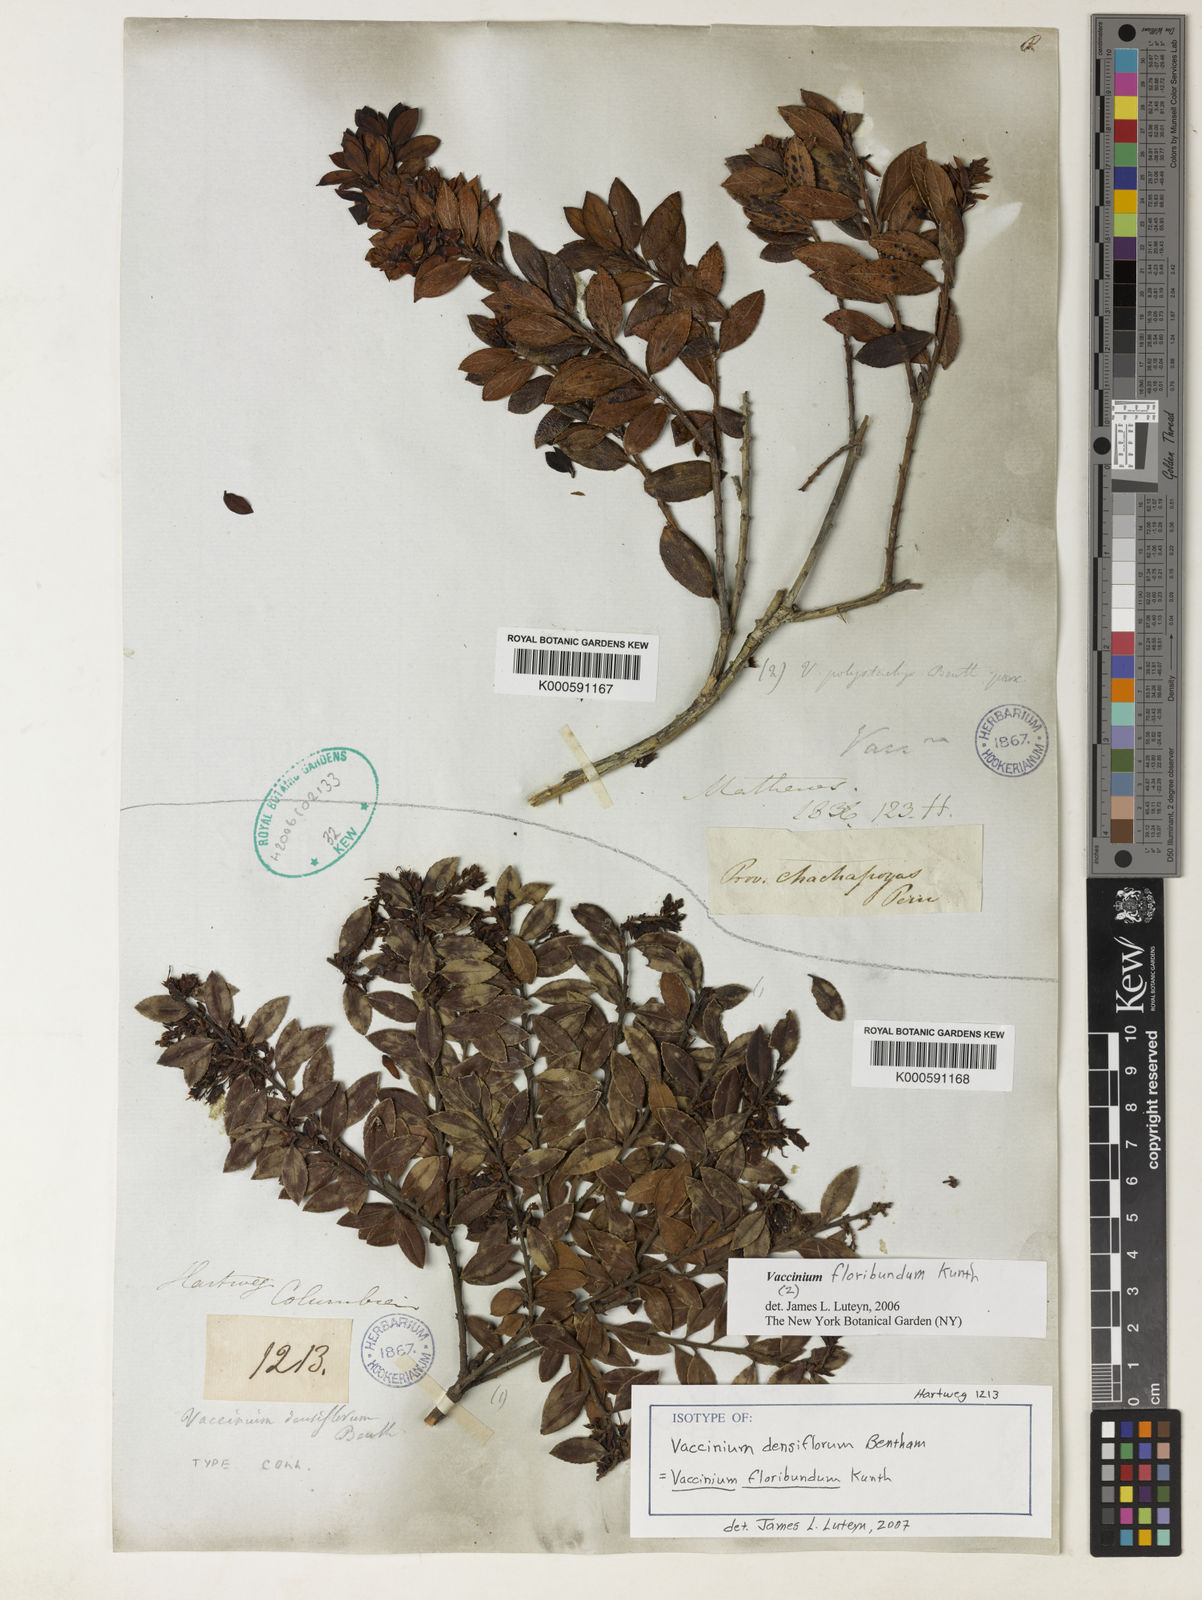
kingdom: Plantae
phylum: Tracheophyta
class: Magnoliopsida
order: Ericales
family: Ericaceae
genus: Vaccinium
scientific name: Vaccinium floribundum
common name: Colombian blueberry
